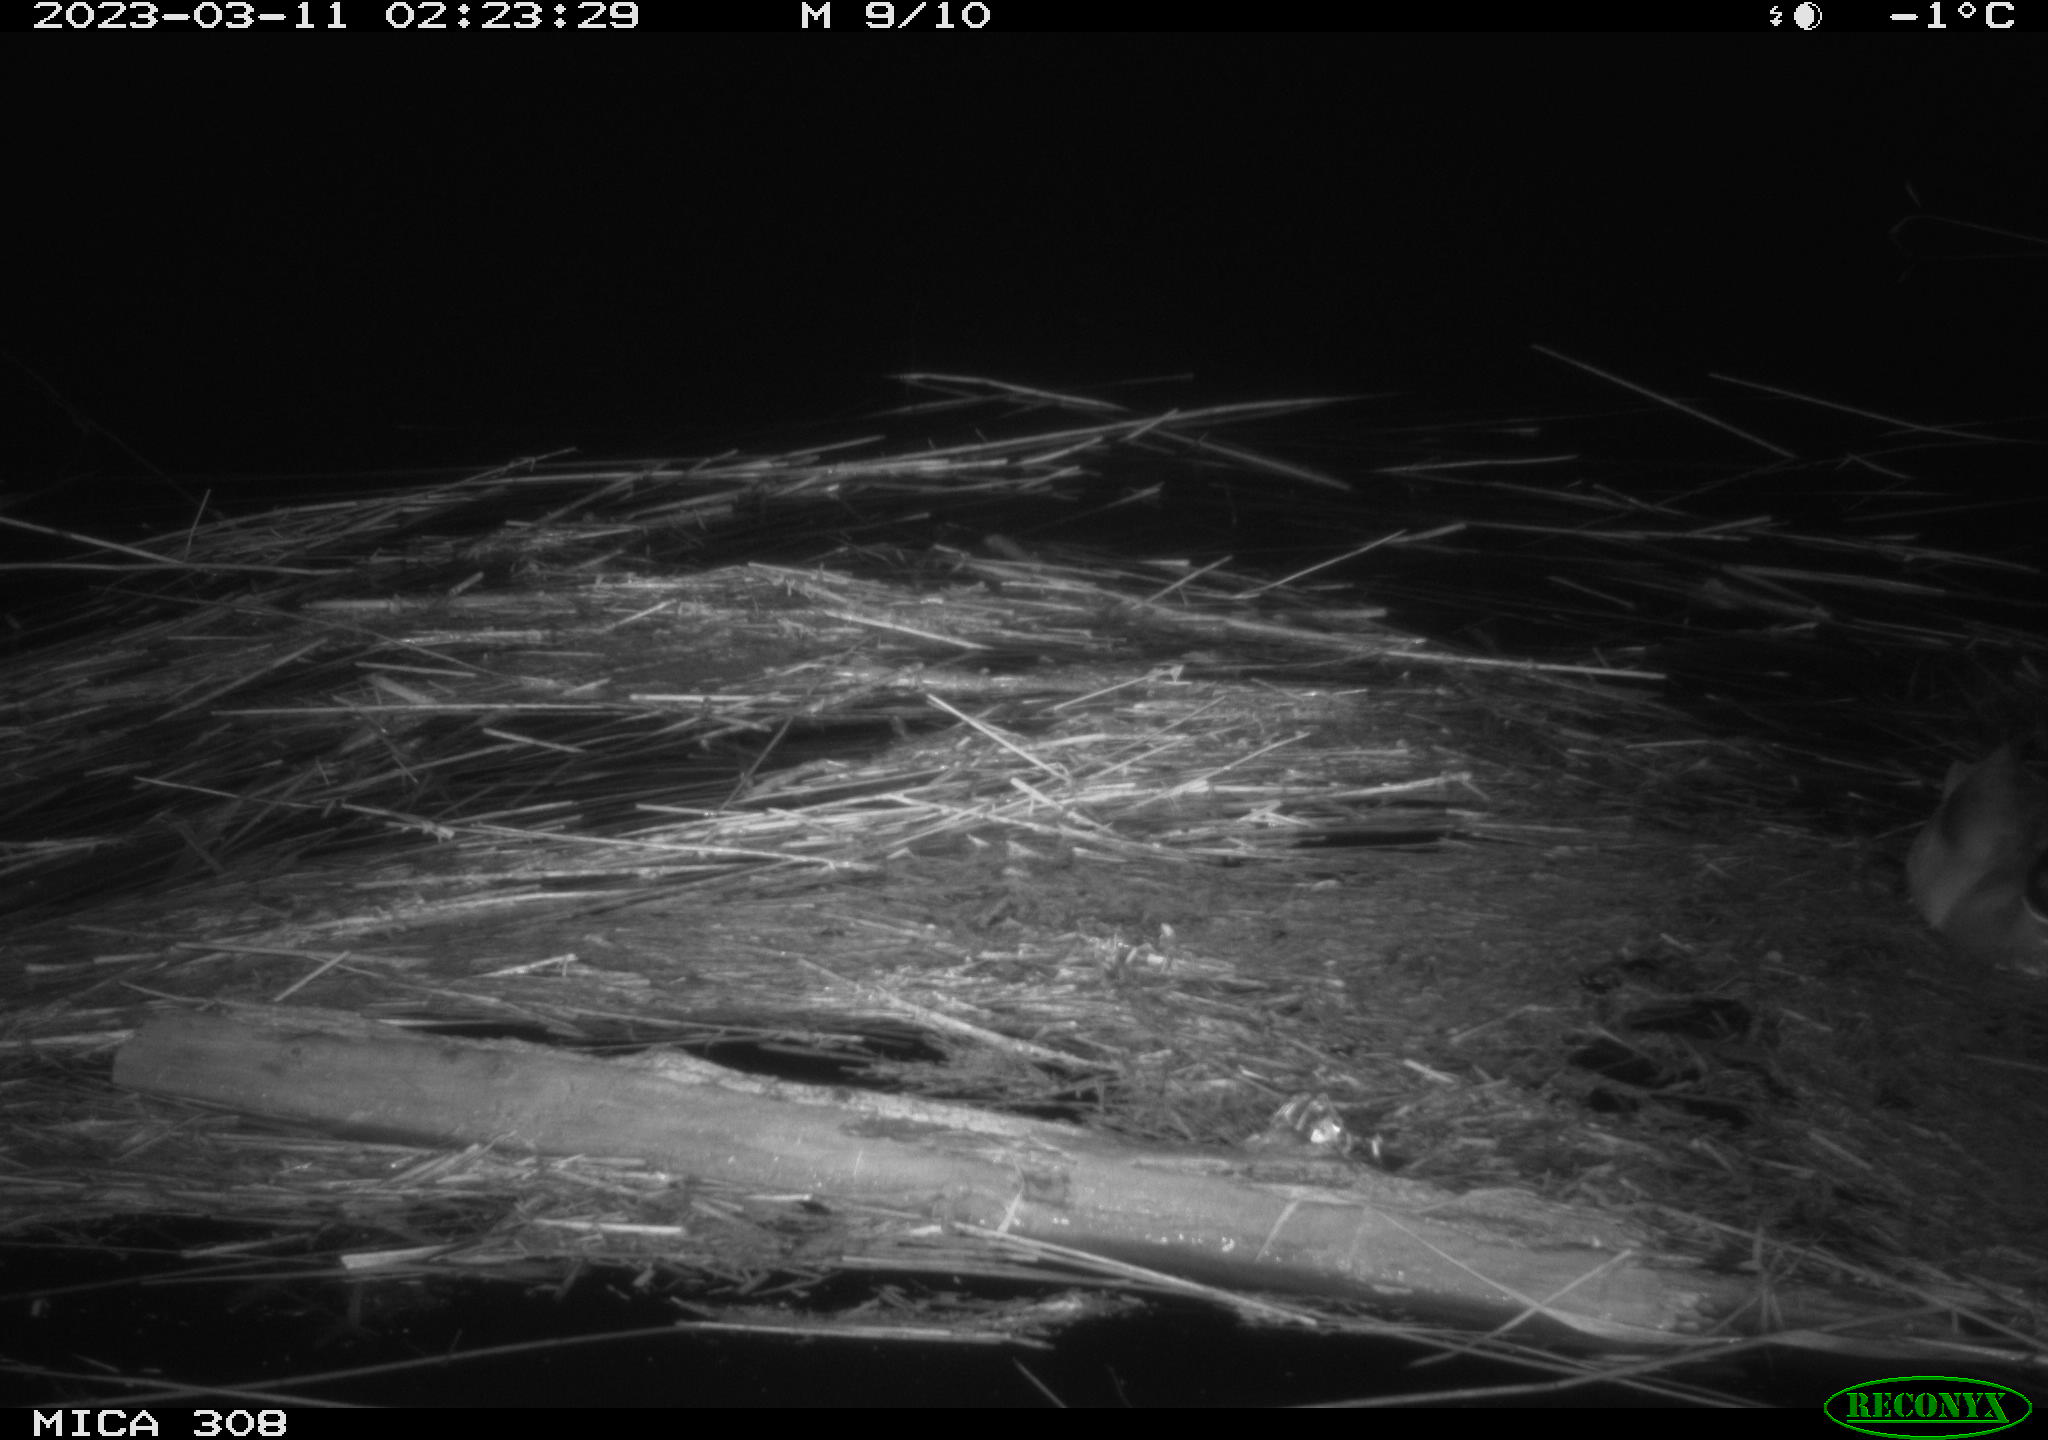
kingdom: Animalia
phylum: Chordata
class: Aves
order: Anseriformes
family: Anatidae
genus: Anas
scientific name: Anas platyrhynchos
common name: Mallard
